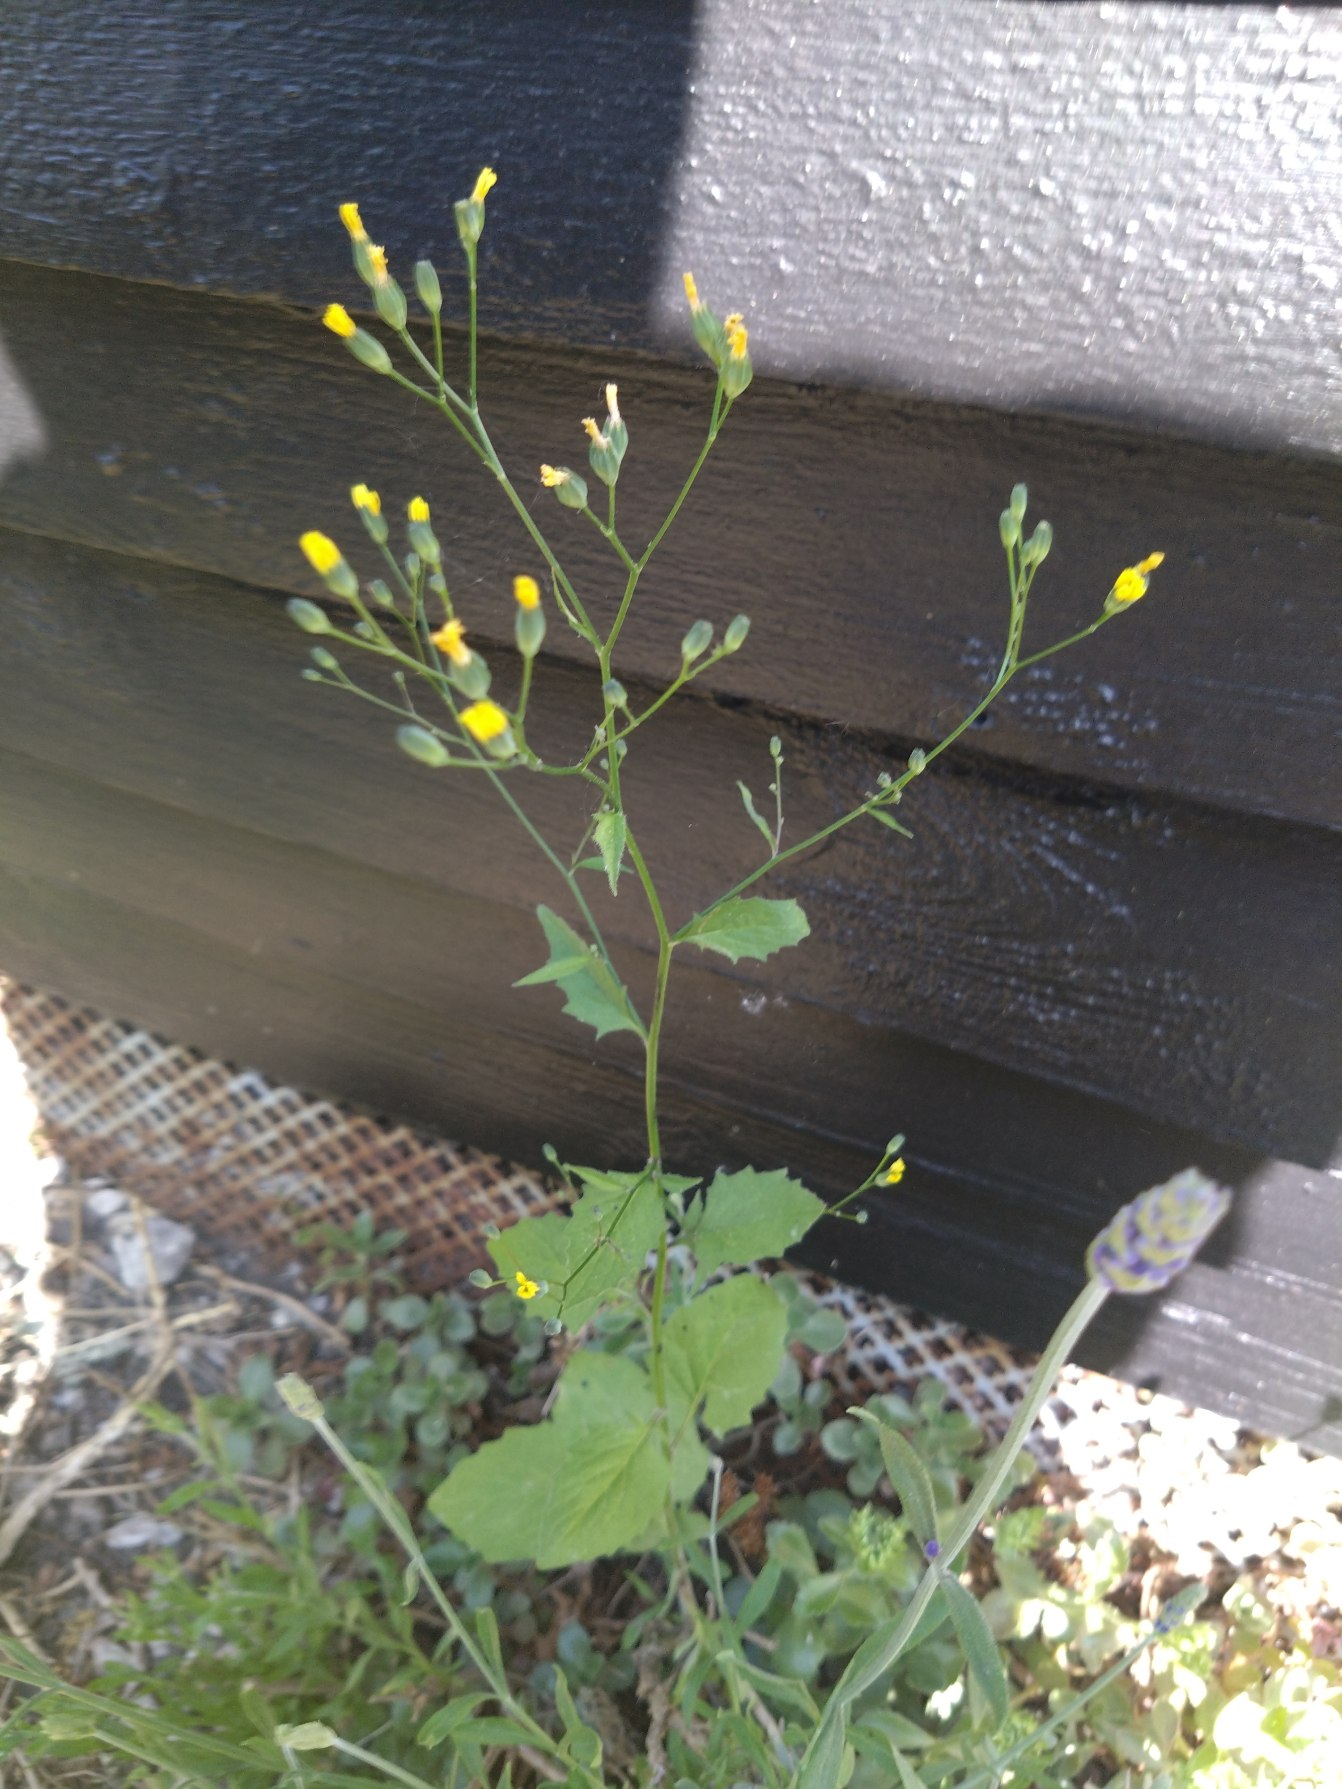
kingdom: Plantae
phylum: Tracheophyta
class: Magnoliopsida
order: Asterales
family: Asteraceae
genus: Lapsana
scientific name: Lapsana communis
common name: Haremad
